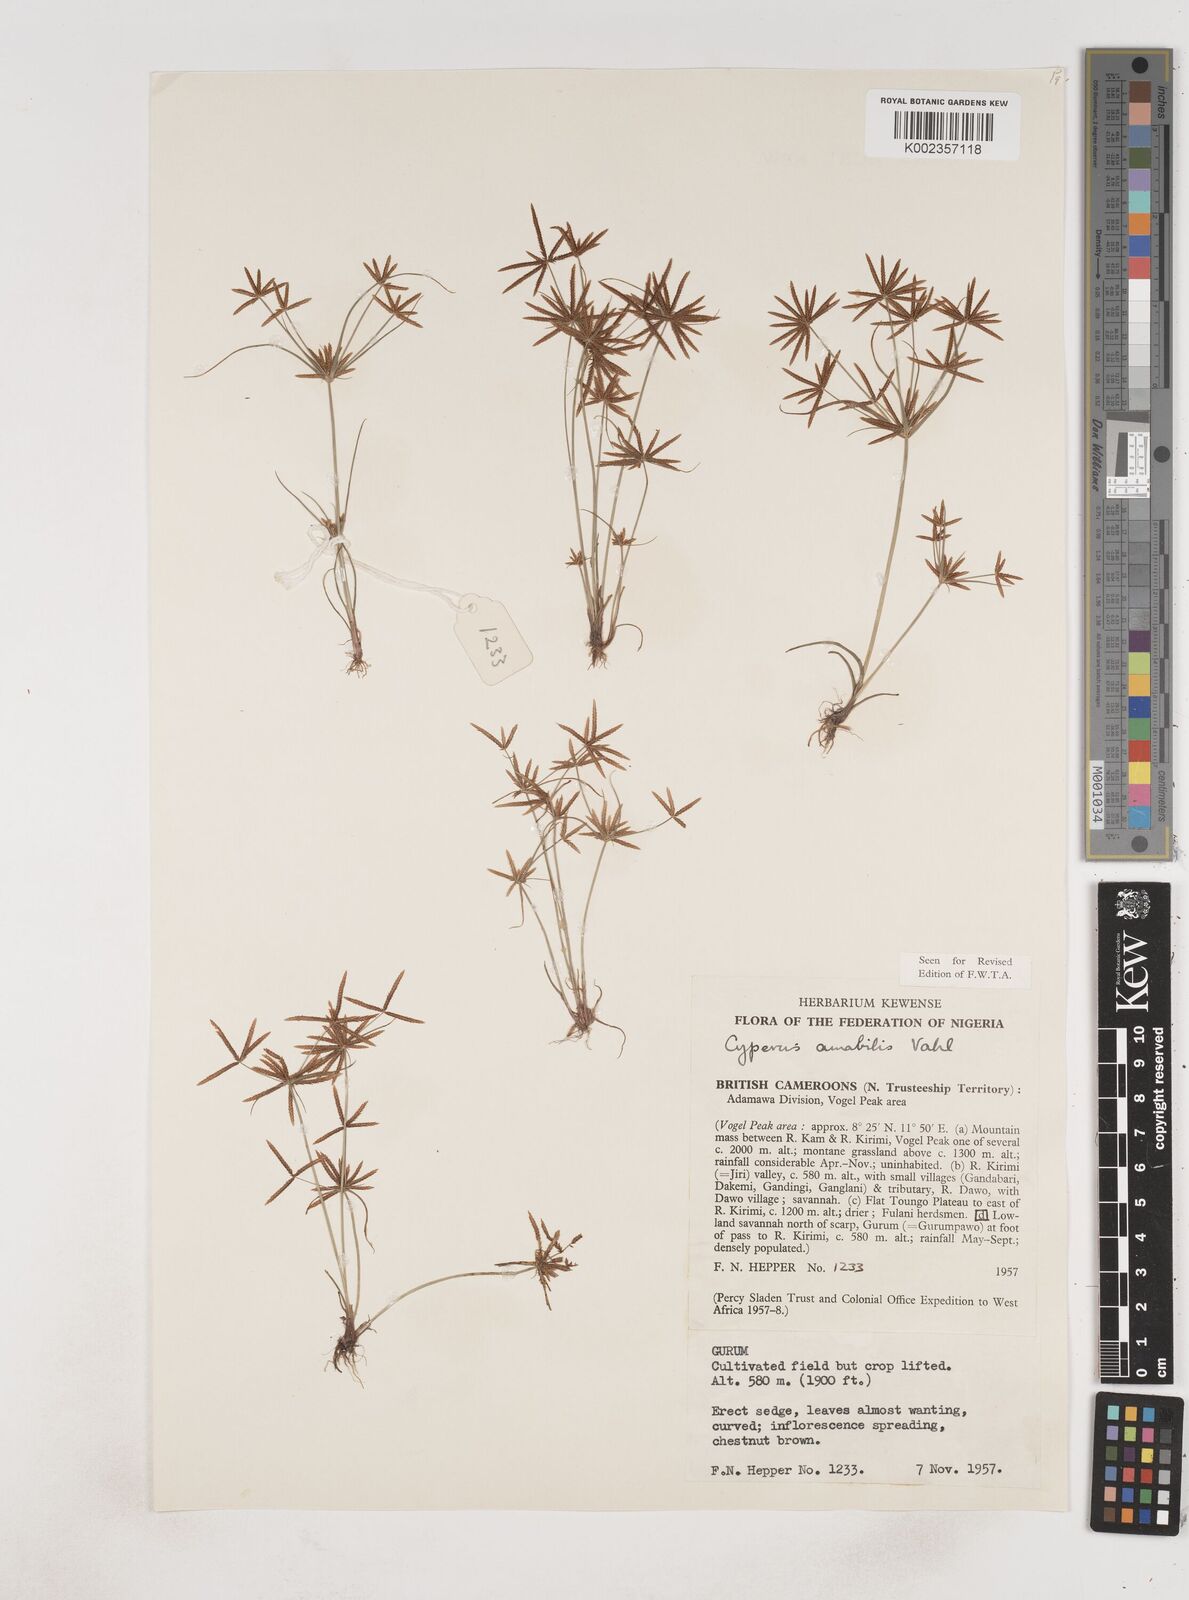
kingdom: Plantae
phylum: Tracheophyta
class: Liliopsida
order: Poales
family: Cyperaceae
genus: Cyperus
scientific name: Cyperus amabilis
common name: Foothill flat sedge
